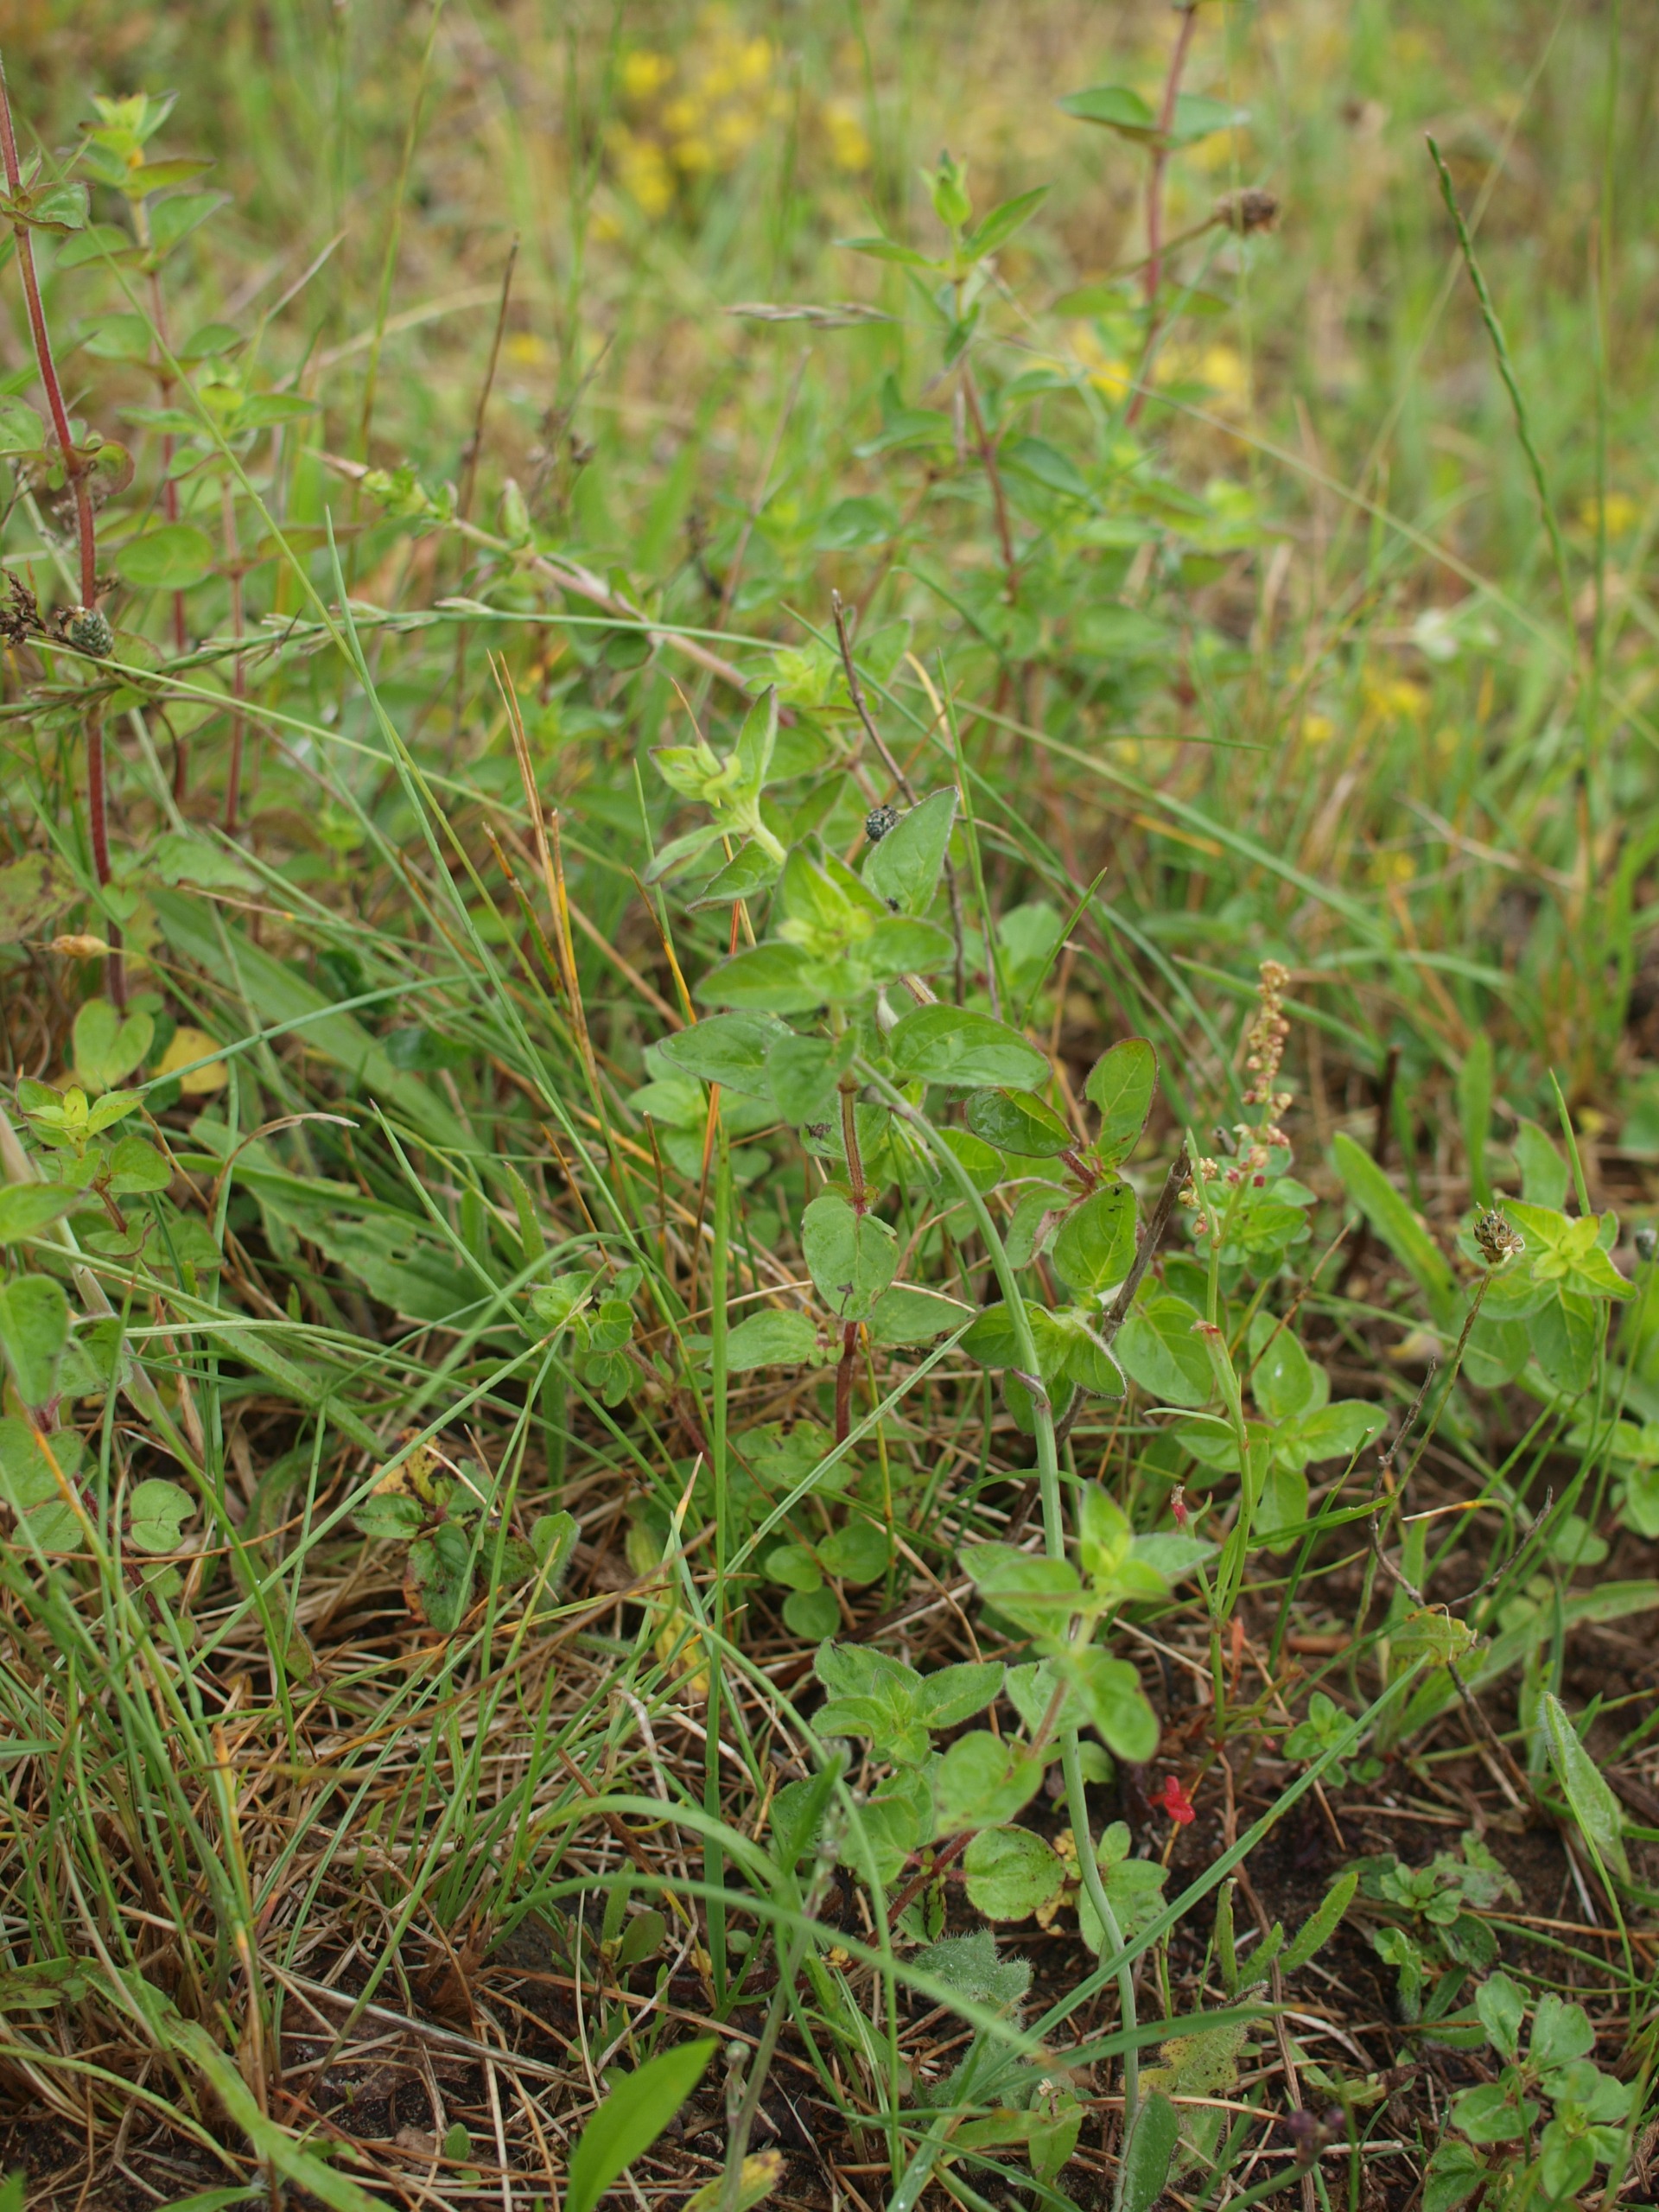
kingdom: Plantae
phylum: Tracheophyta
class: Magnoliopsida
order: Lamiales
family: Lamiaceae
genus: Origanum
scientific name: Origanum vulgare
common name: Merian
